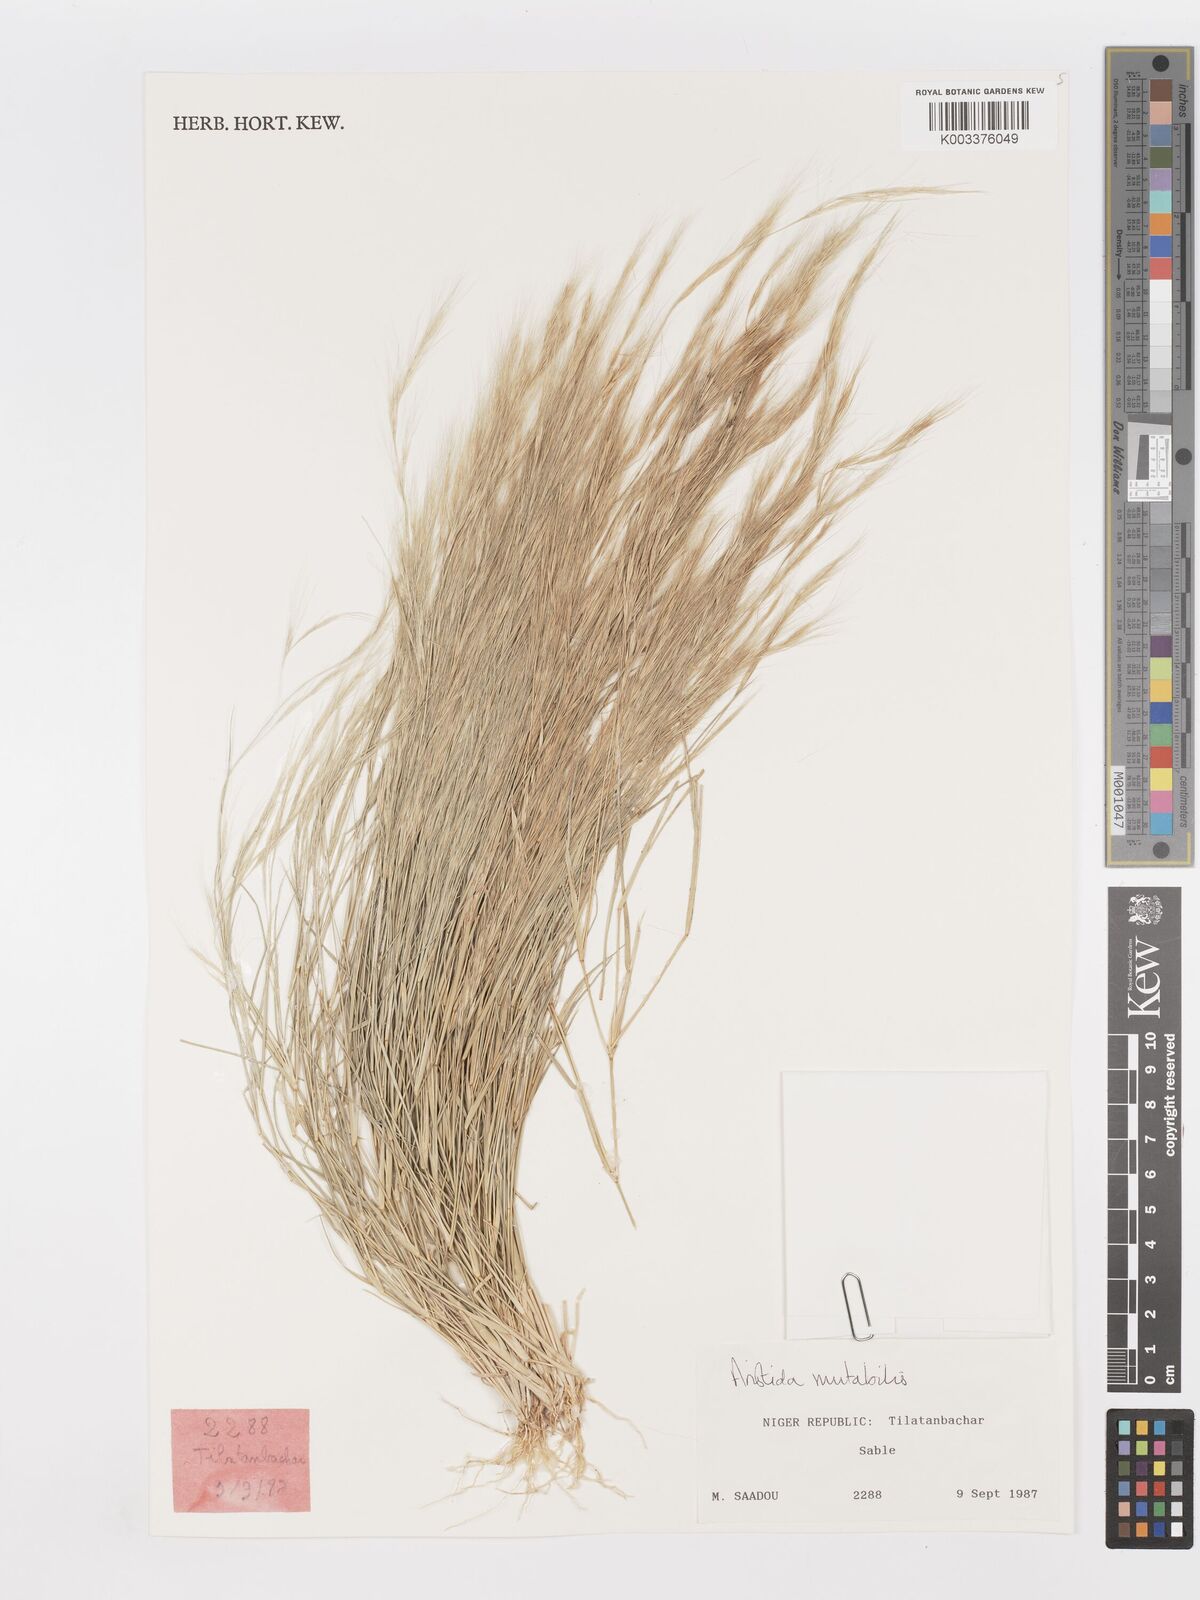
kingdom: Plantae
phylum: Tracheophyta
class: Liliopsida
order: Poales
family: Poaceae
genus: Aristida
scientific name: Aristida mutabilis
